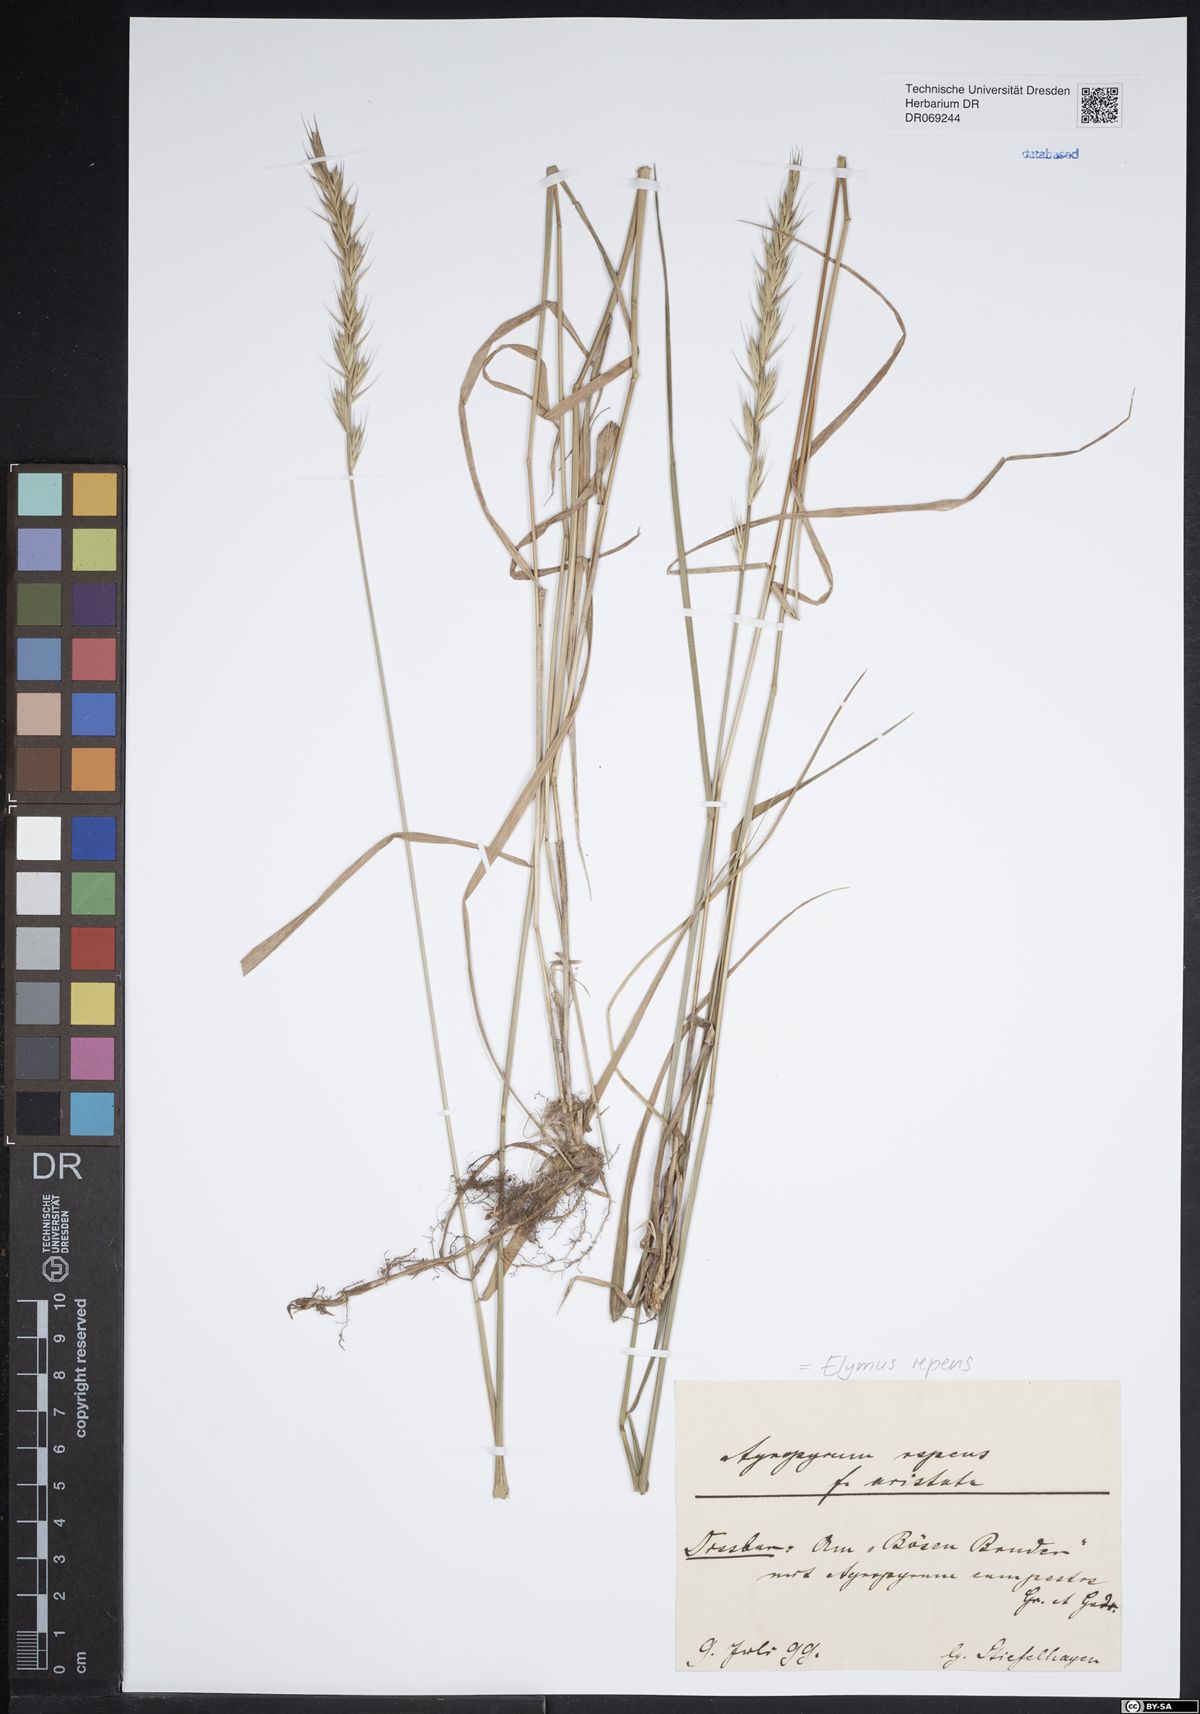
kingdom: Plantae
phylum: Tracheophyta
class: Liliopsida
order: Poales
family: Poaceae
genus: Elymus
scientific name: Elymus repens
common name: Quackgrass
